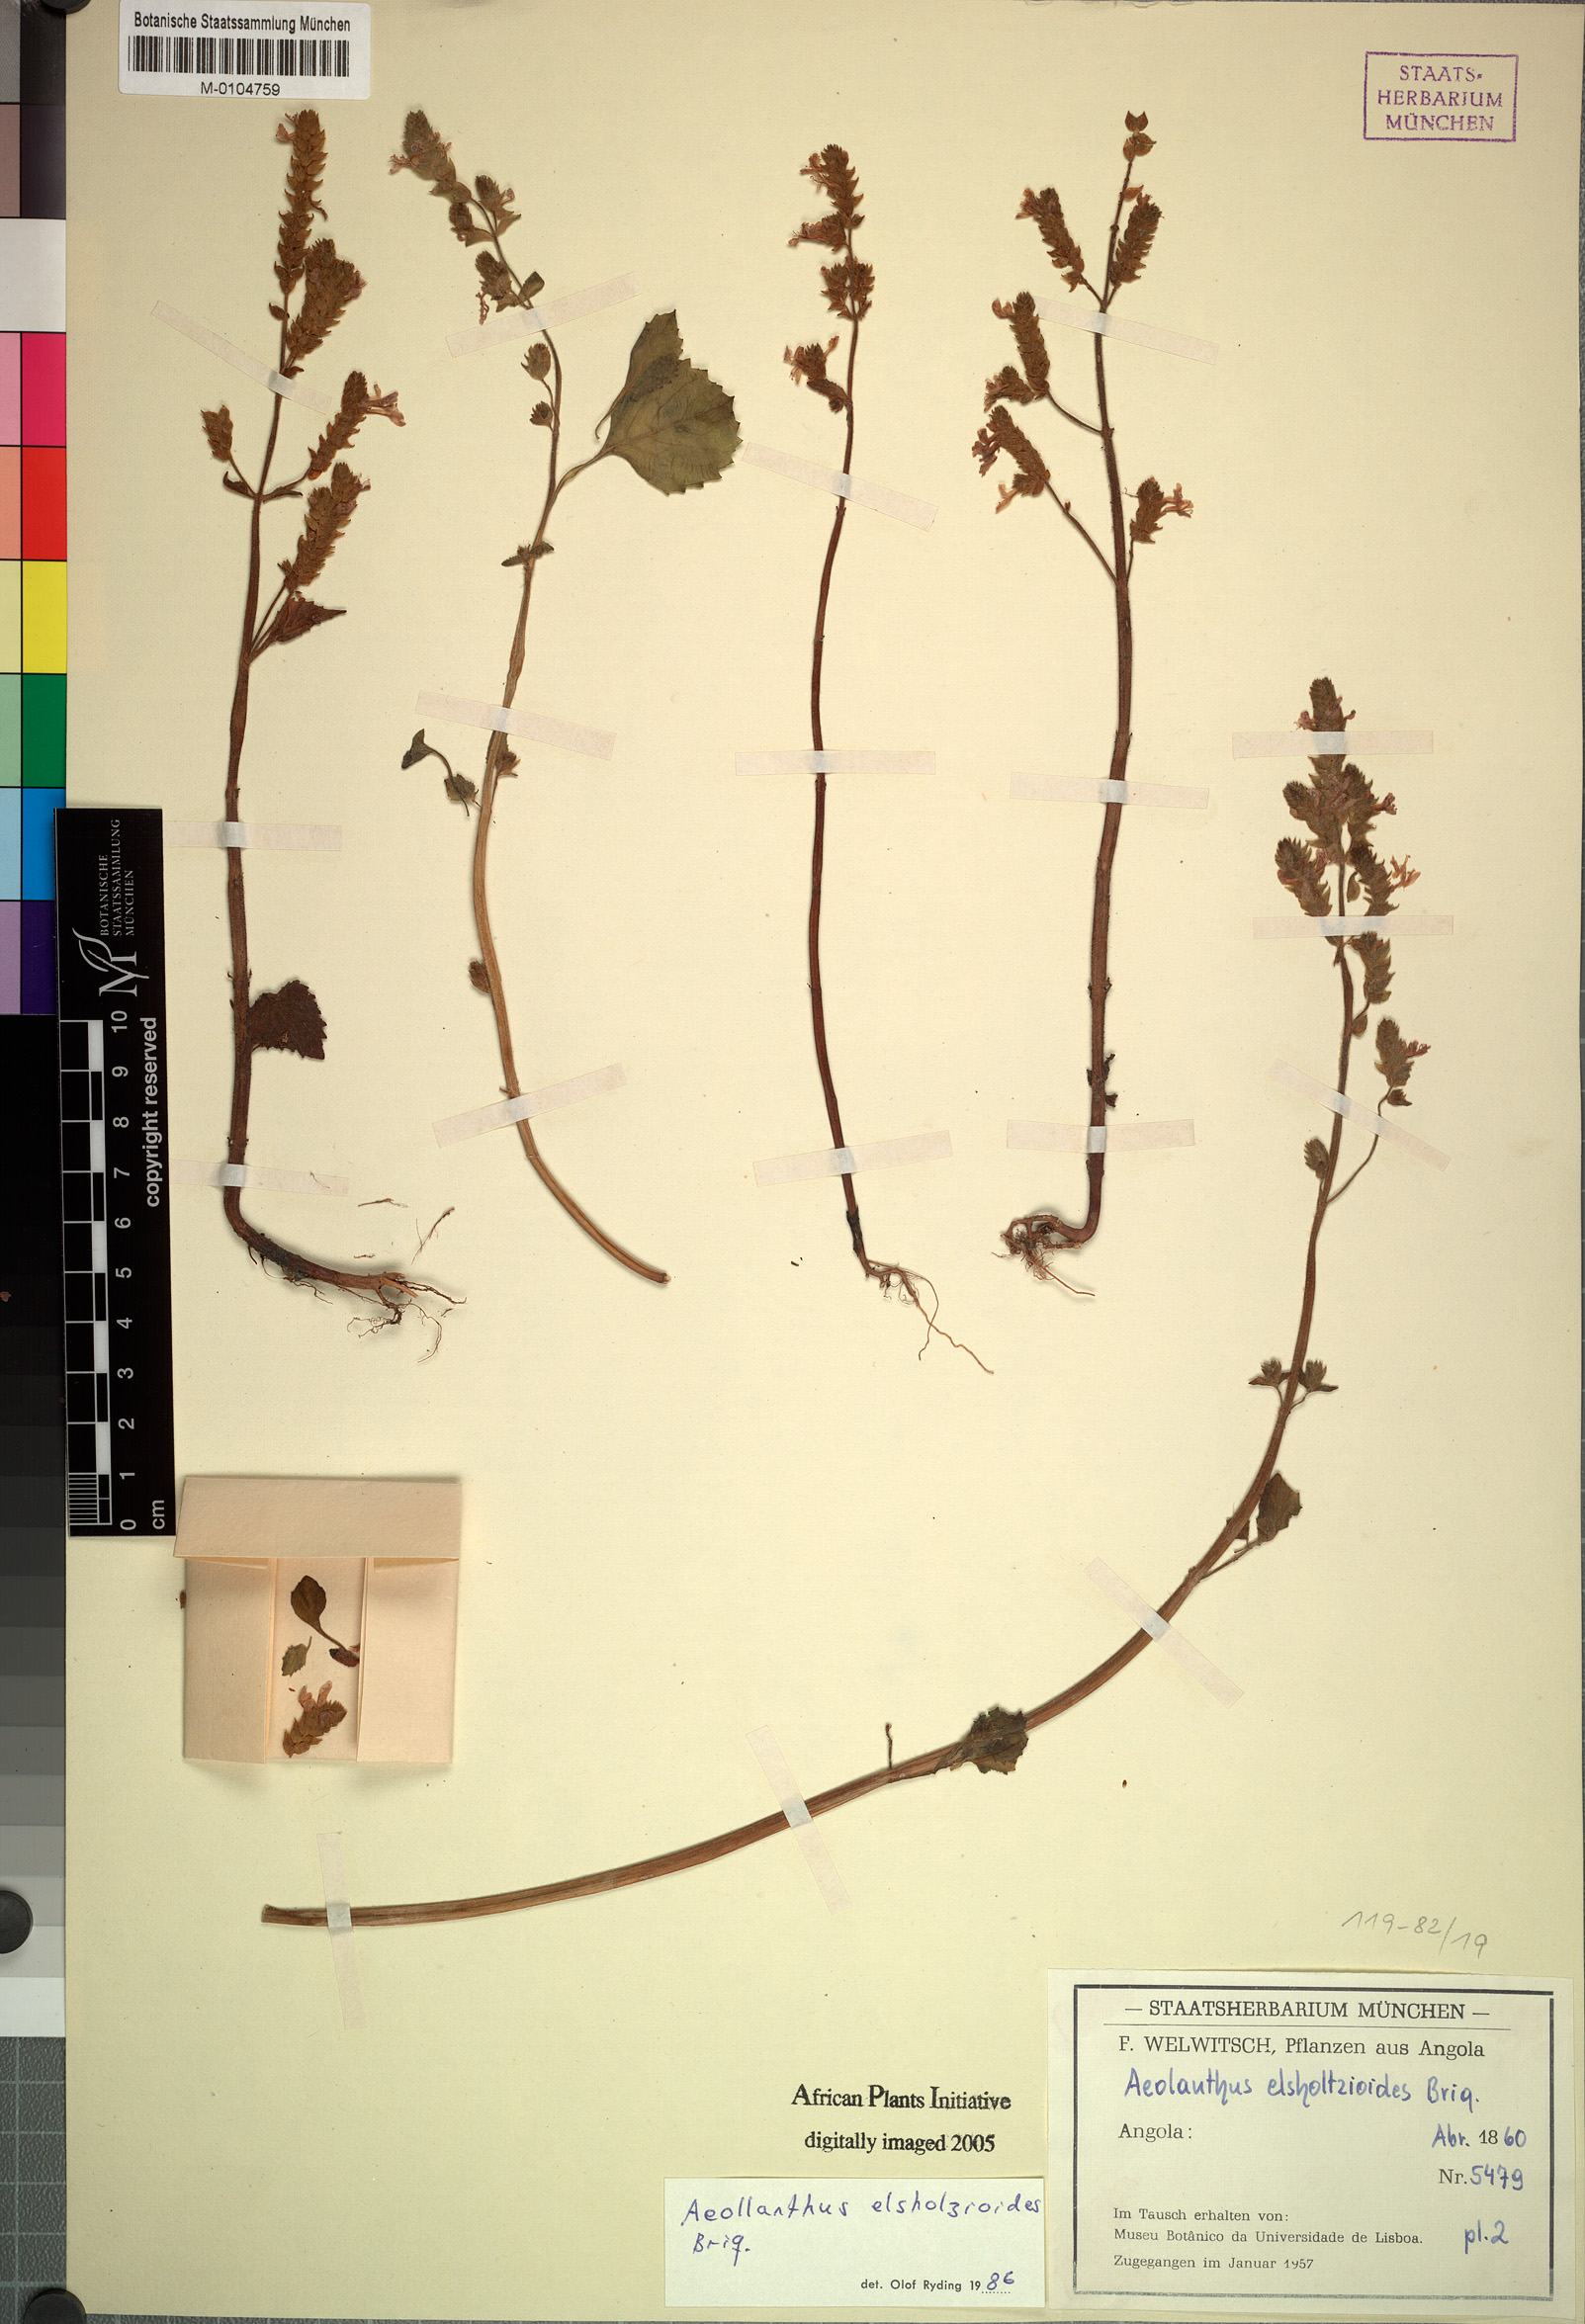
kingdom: Plantae
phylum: Tracheophyta
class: Magnoliopsida
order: Lamiales
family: Lamiaceae
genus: Aeollanthus
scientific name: Aeollanthus elsholtzioides
